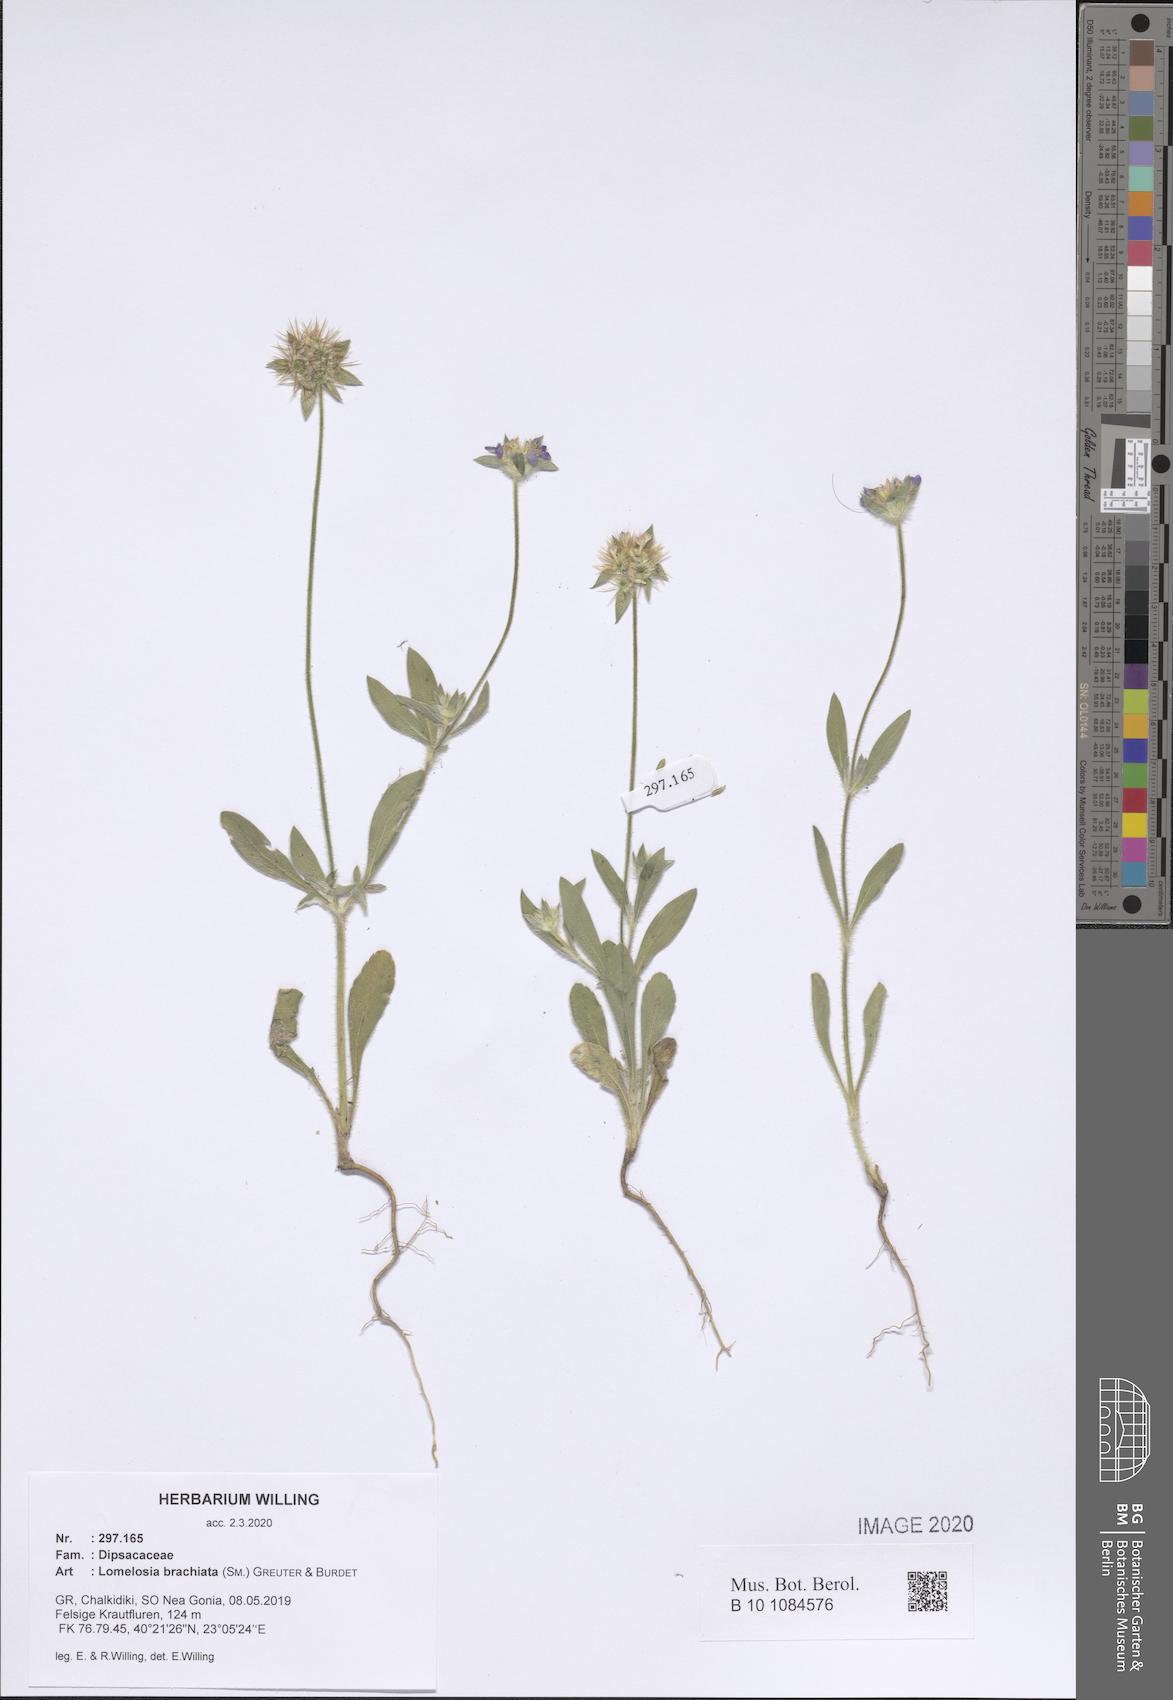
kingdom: Plantae
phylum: Tracheophyta
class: Magnoliopsida
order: Dipsacales
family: Caprifoliaceae
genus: Lomelosia
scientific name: Lomelosia brachiata
